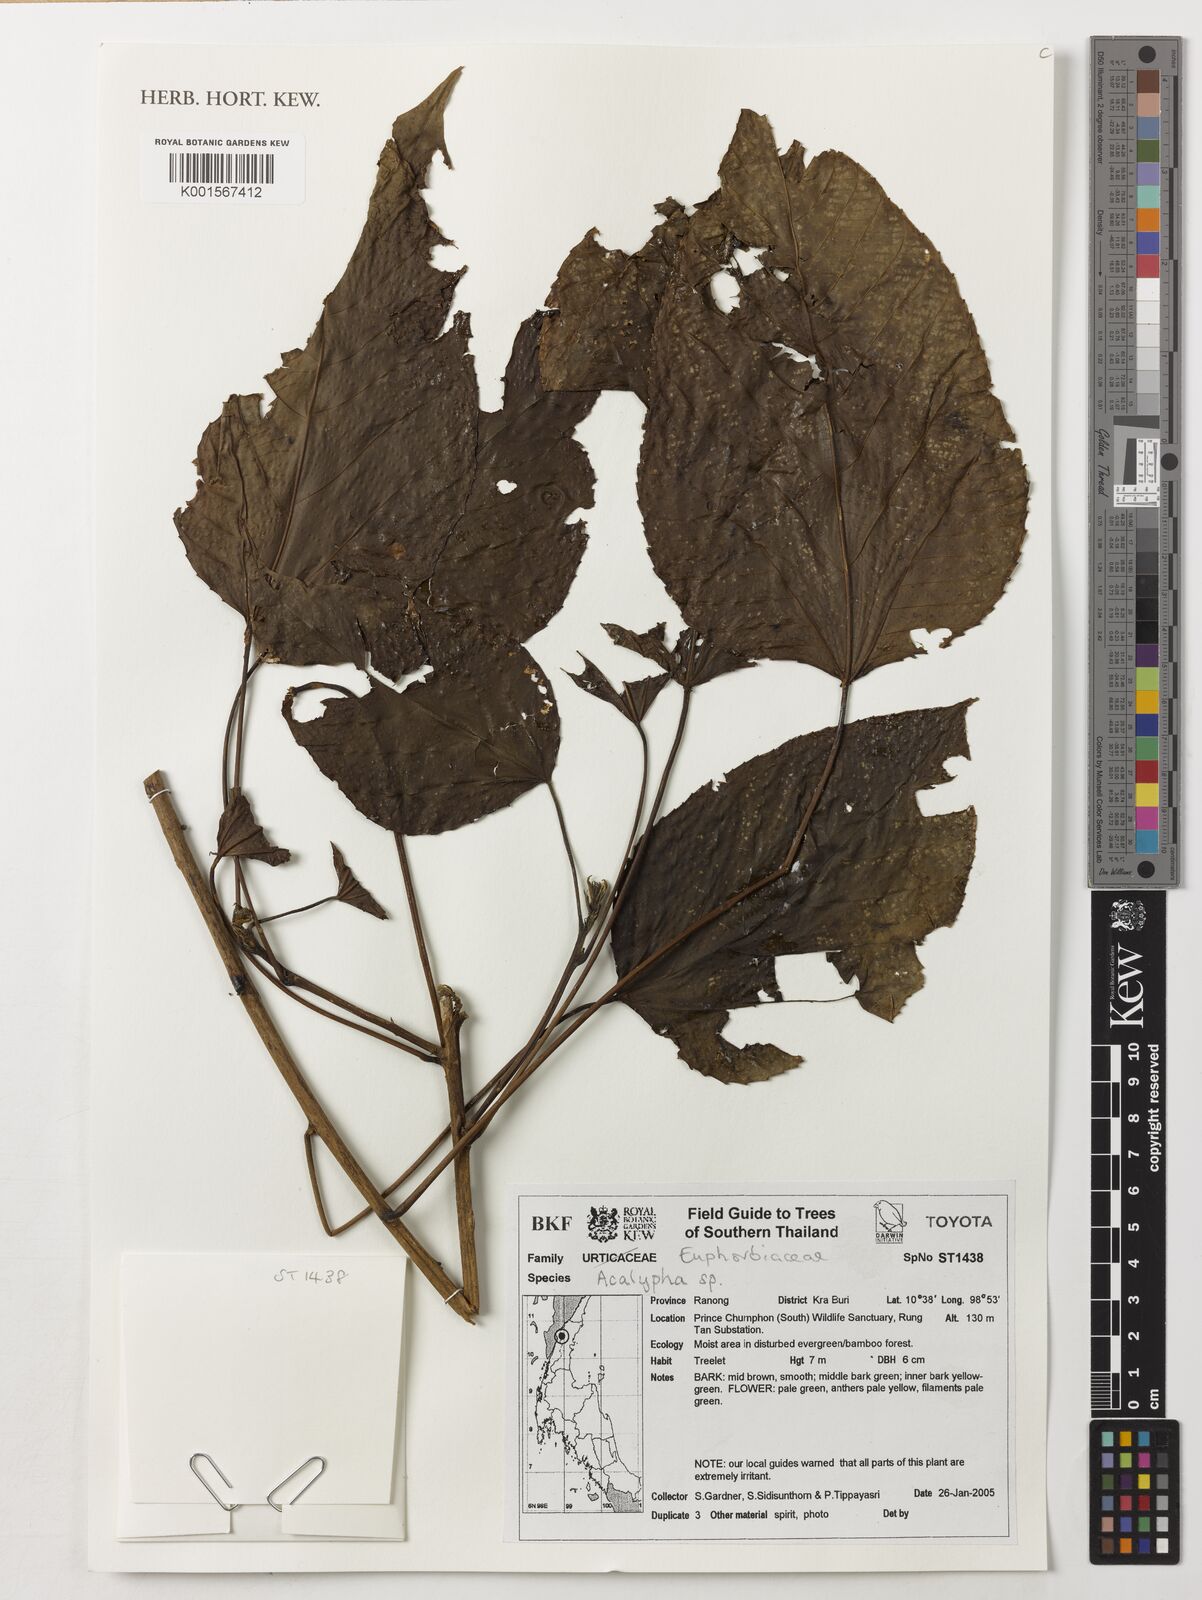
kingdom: Plantae
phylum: Tracheophyta
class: Magnoliopsida
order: Malpighiales
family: Euphorbiaceae
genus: Acalypha
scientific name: Acalypha
